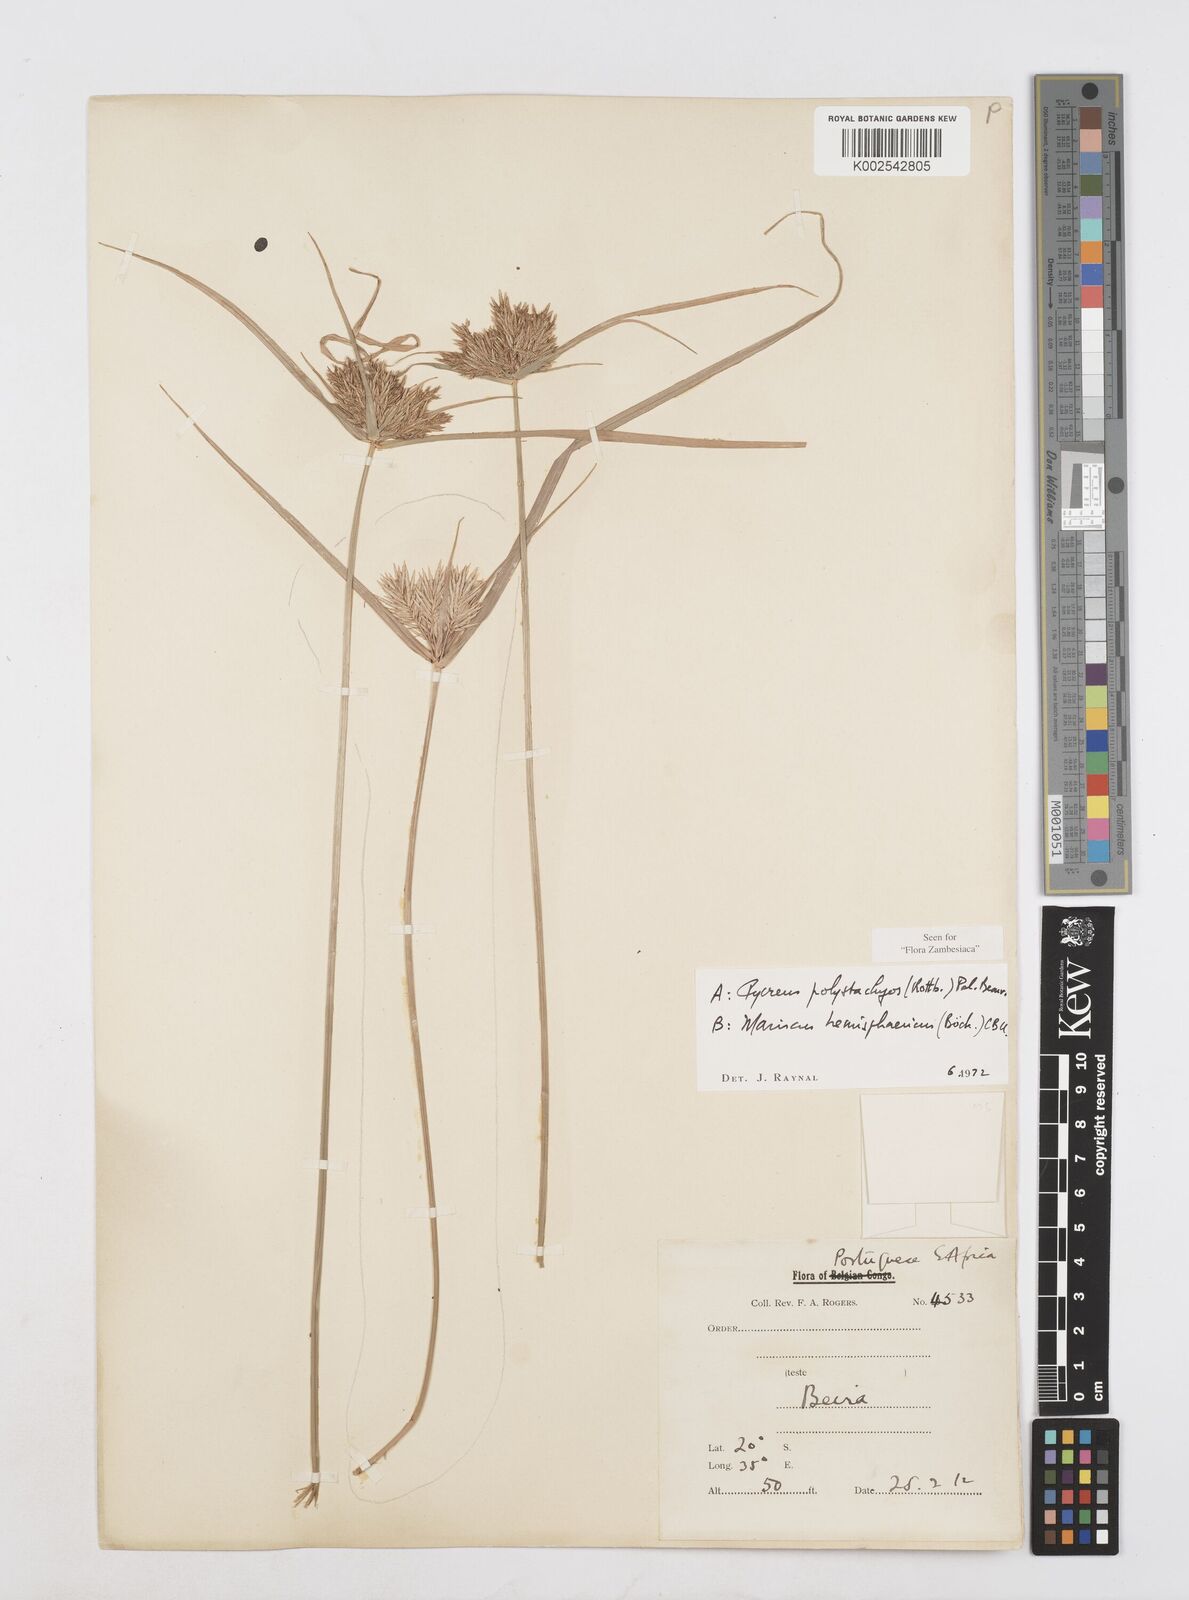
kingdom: Plantae
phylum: Tracheophyta
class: Liliopsida
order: Poales
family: Cyperaceae
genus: Cyperus
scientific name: Cyperus polystachyos
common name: Bunchy flat sedge
